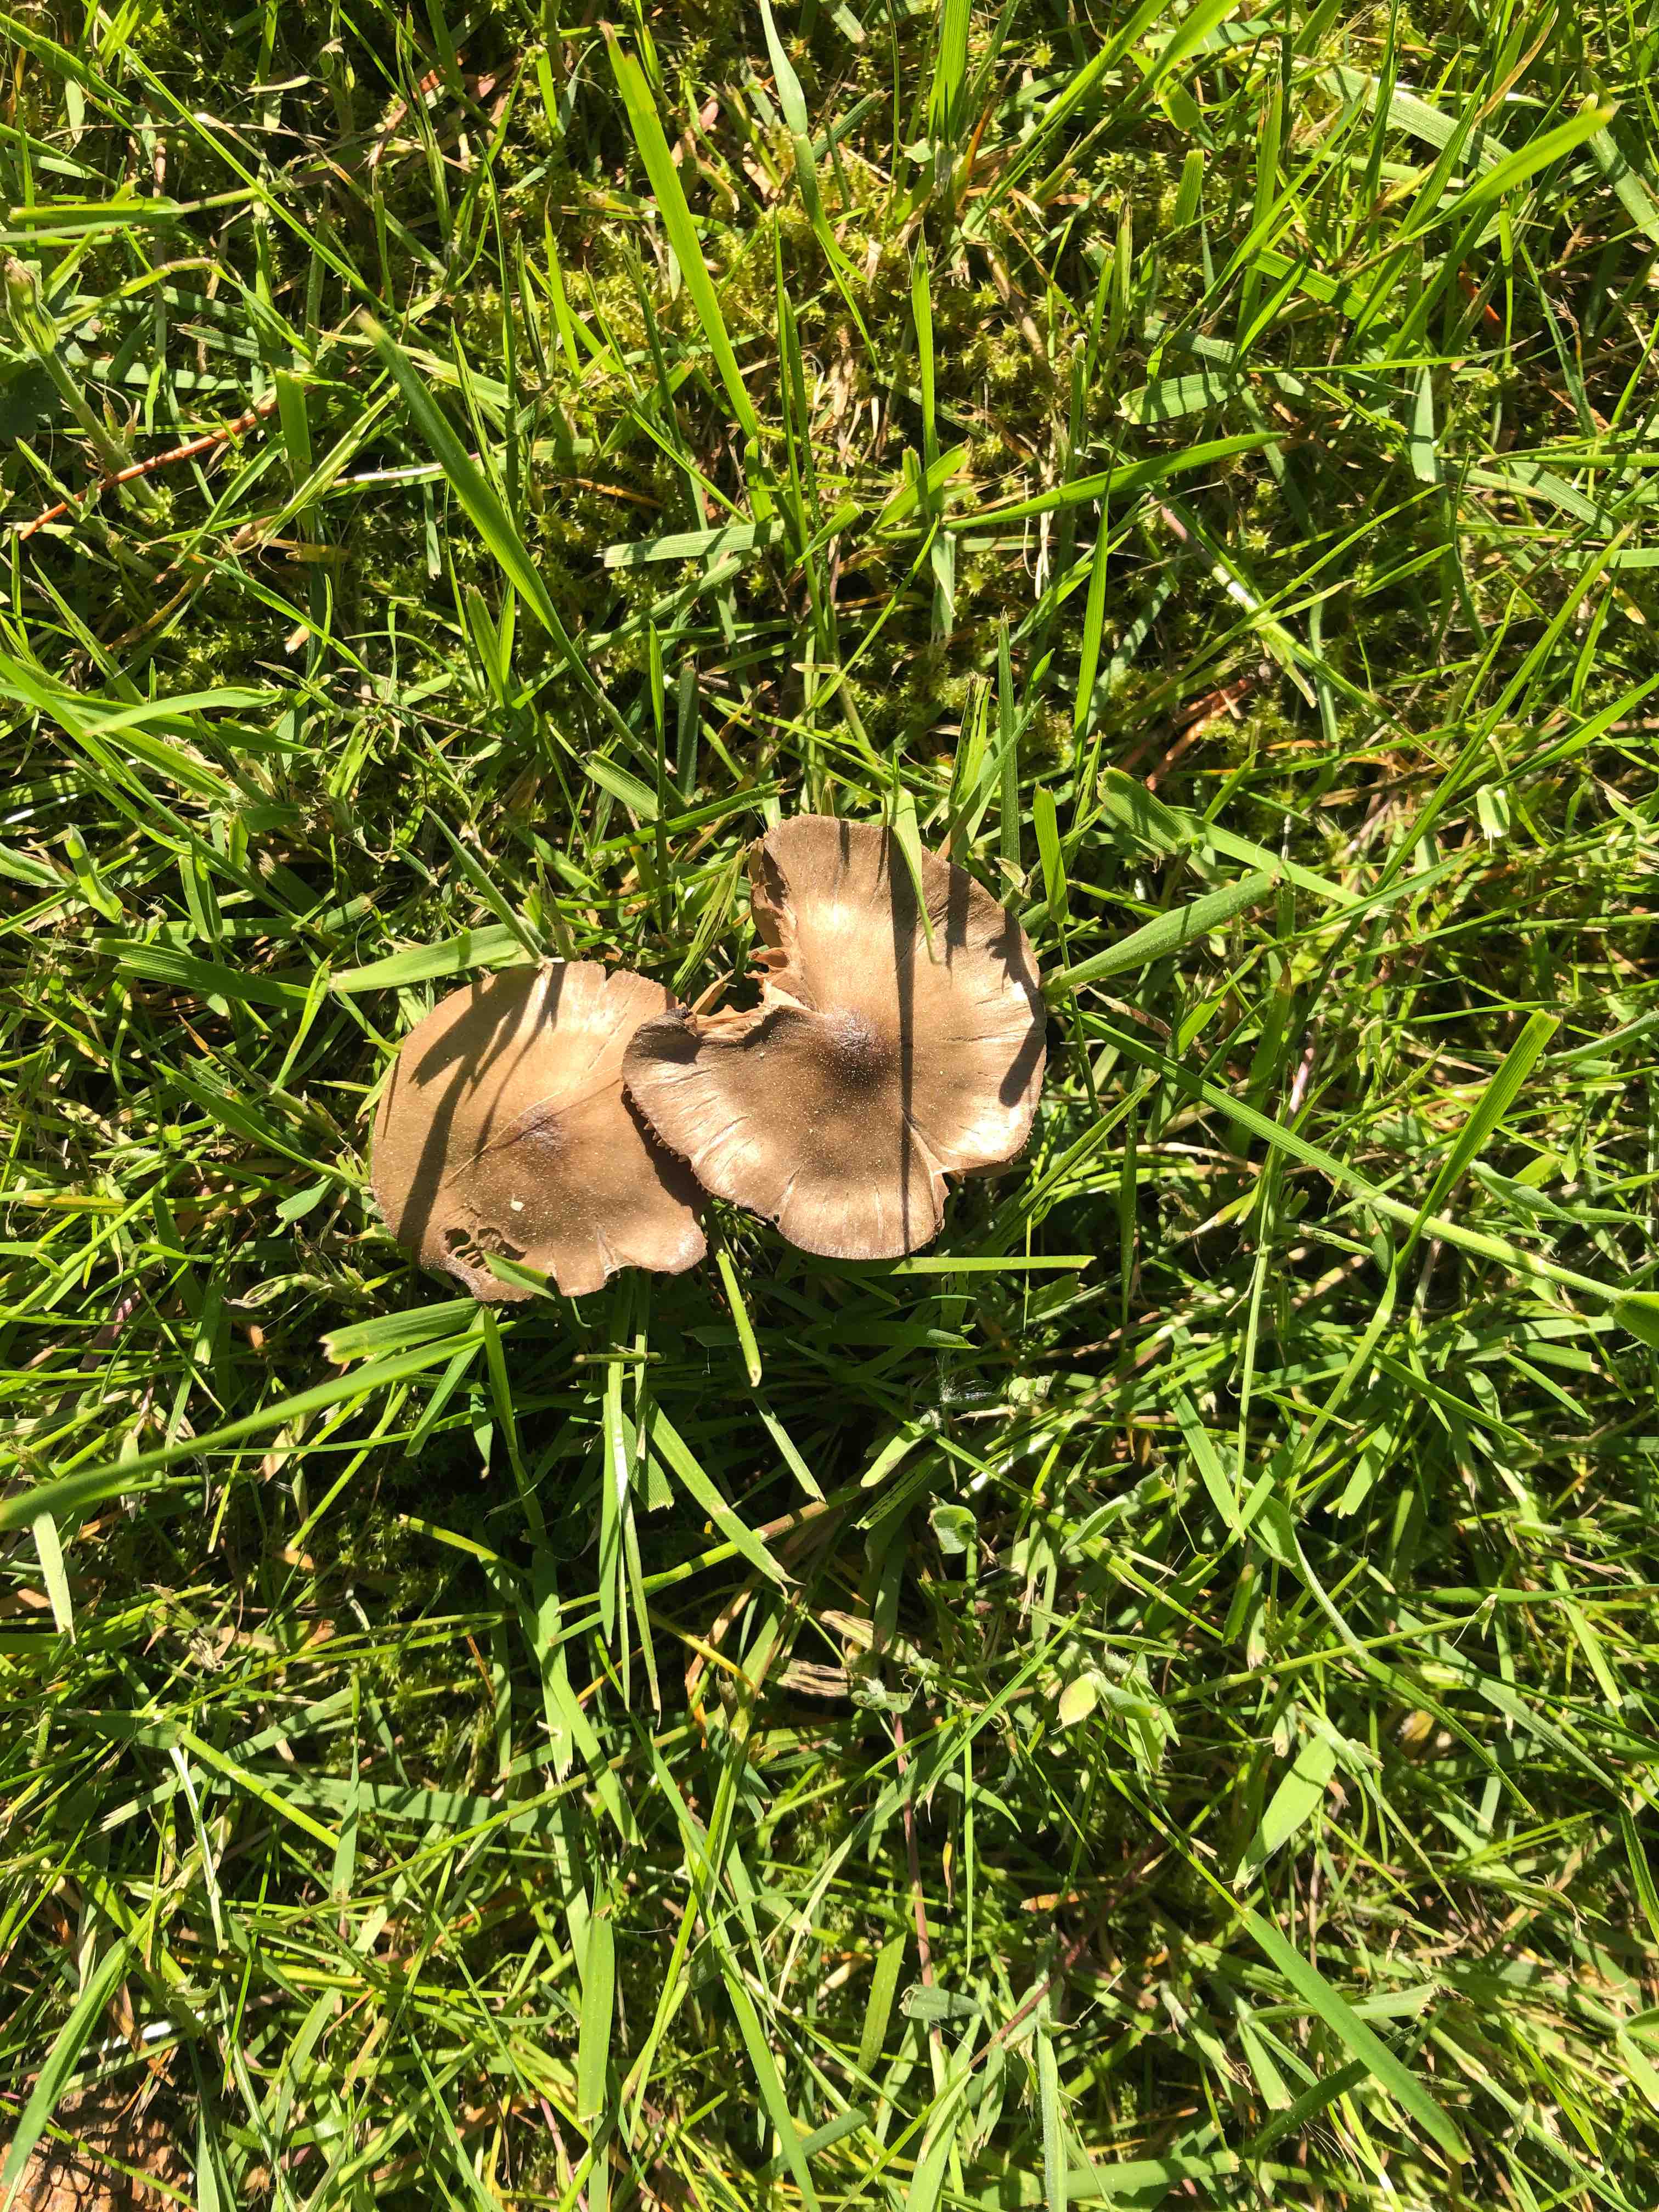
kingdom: Fungi
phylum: Basidiomycota
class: Agaricomycetes
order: Agaricales
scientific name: Agaricales
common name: champignonordenen
